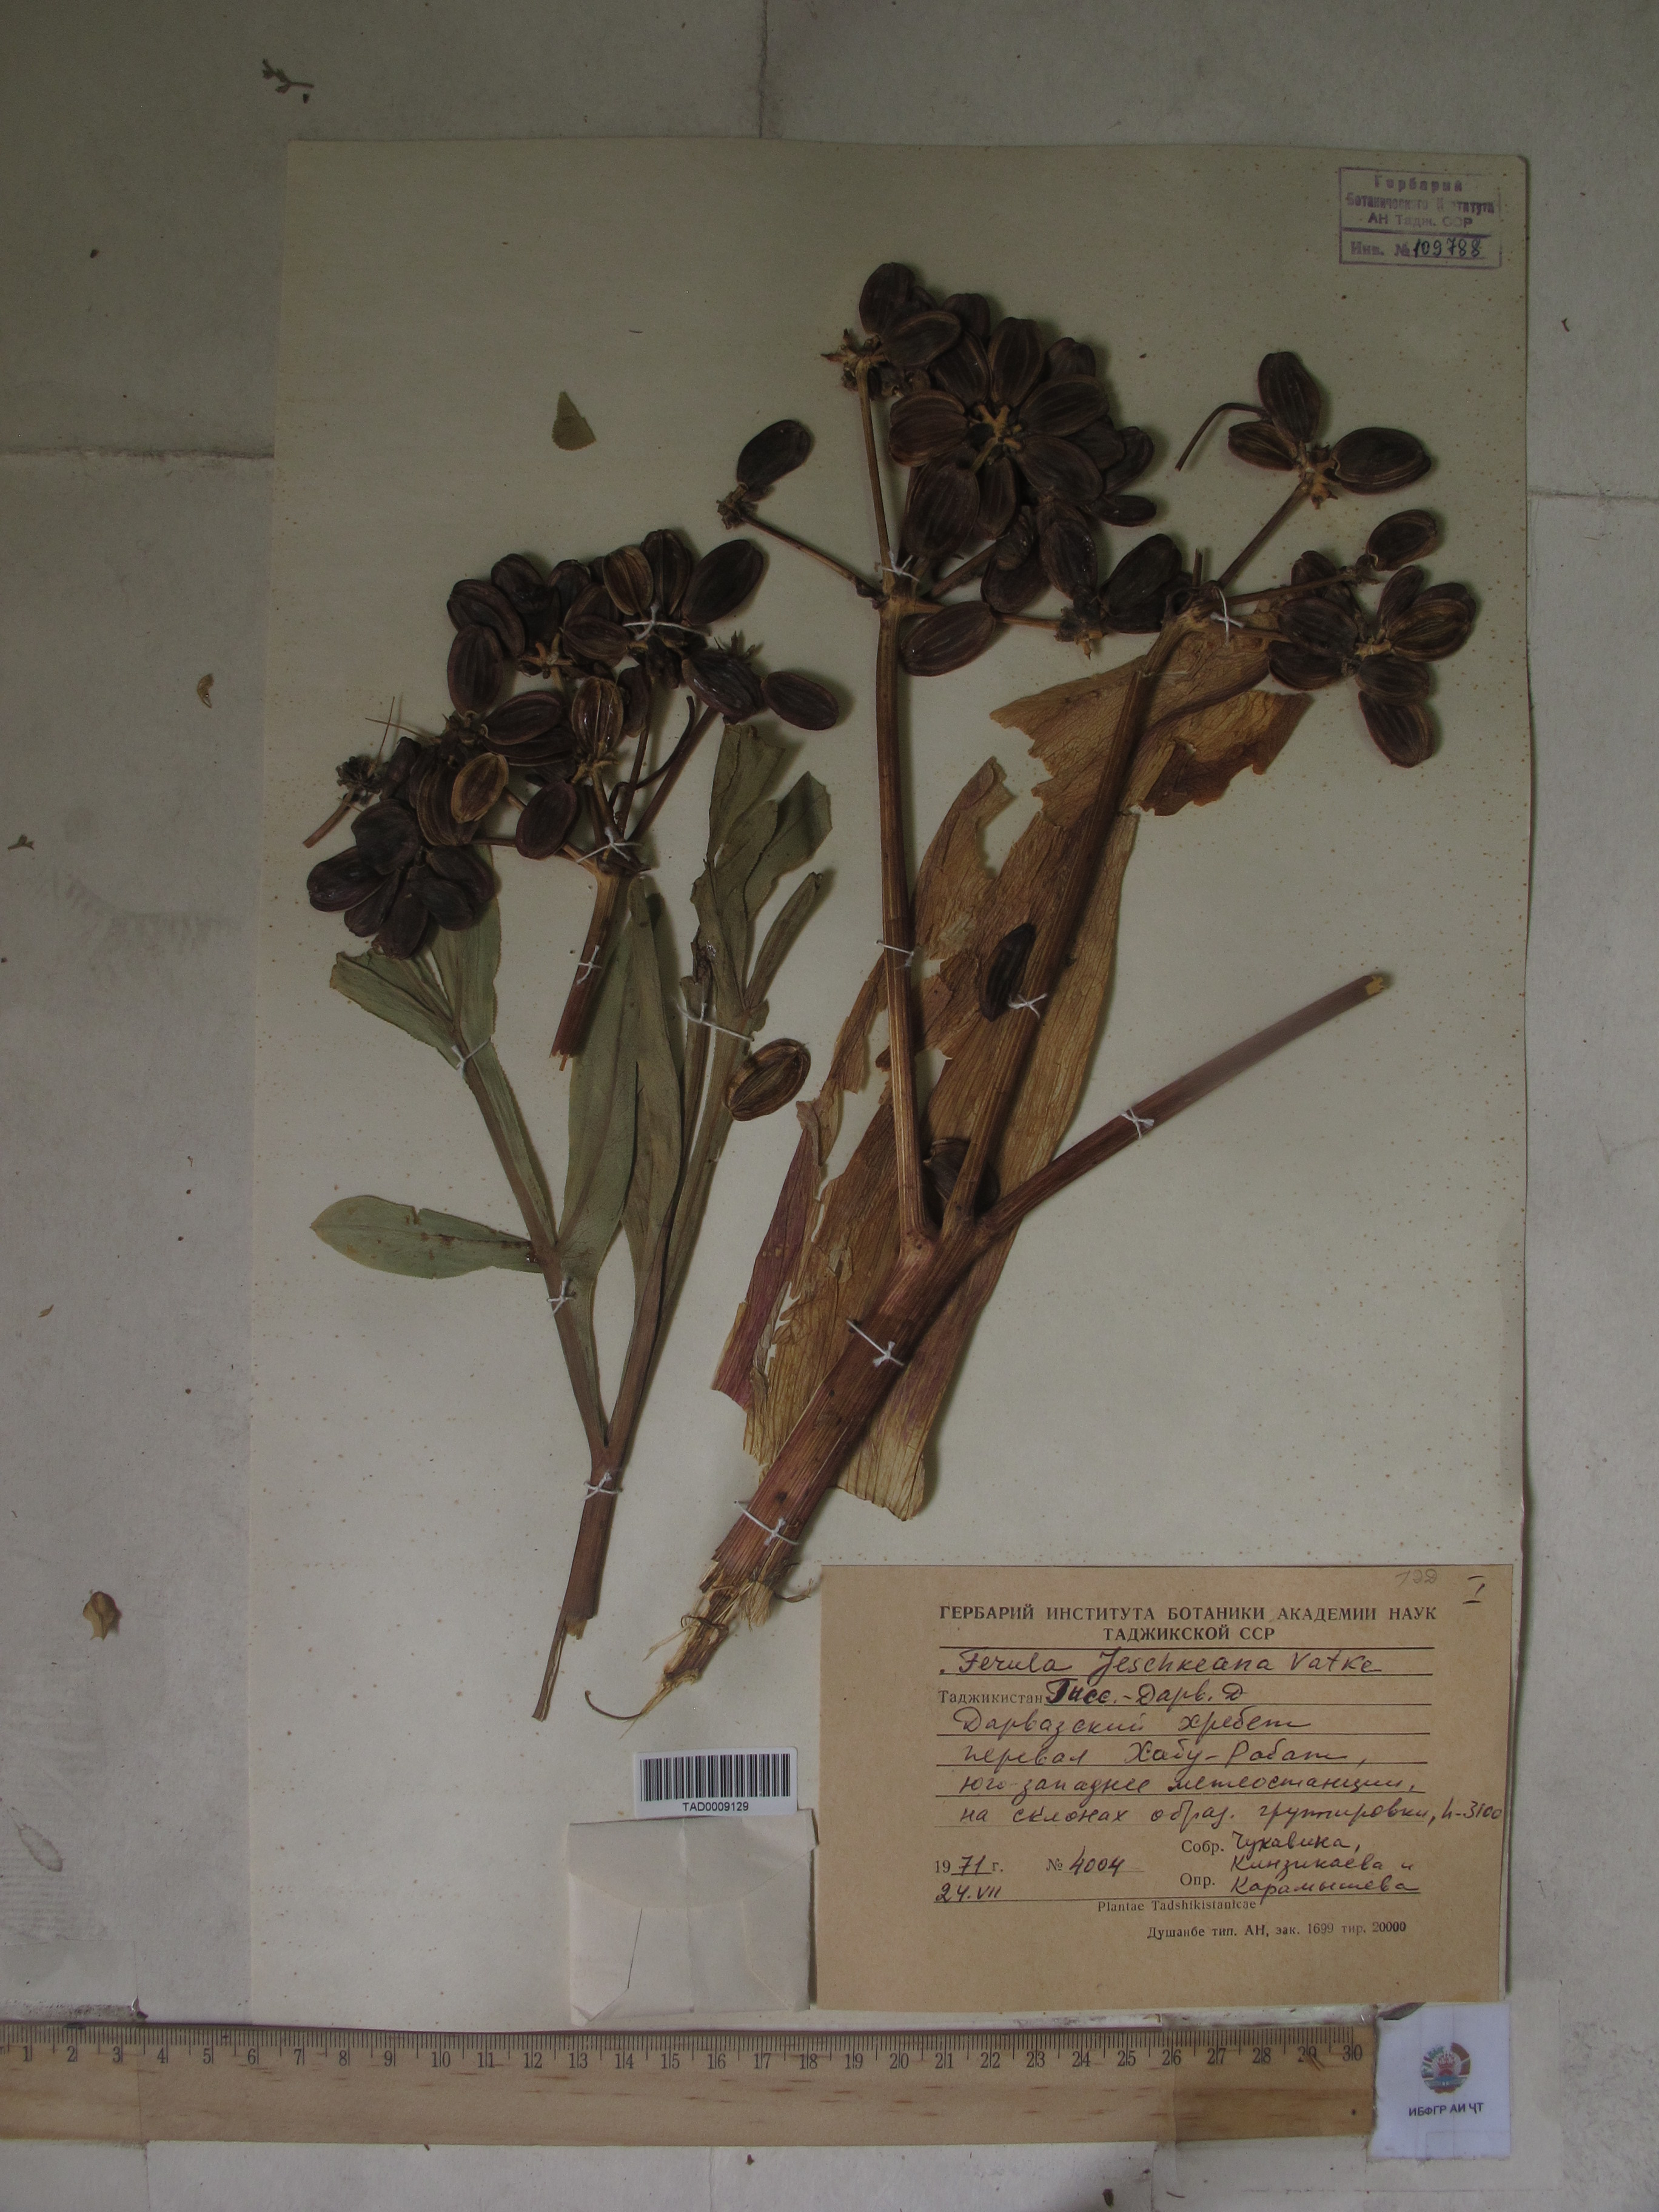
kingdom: Plantae
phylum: Tracheophyta
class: Magnoliopsida
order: Apiales
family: Apiaceae
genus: Ferula
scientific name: Ferula jaeschkeana
